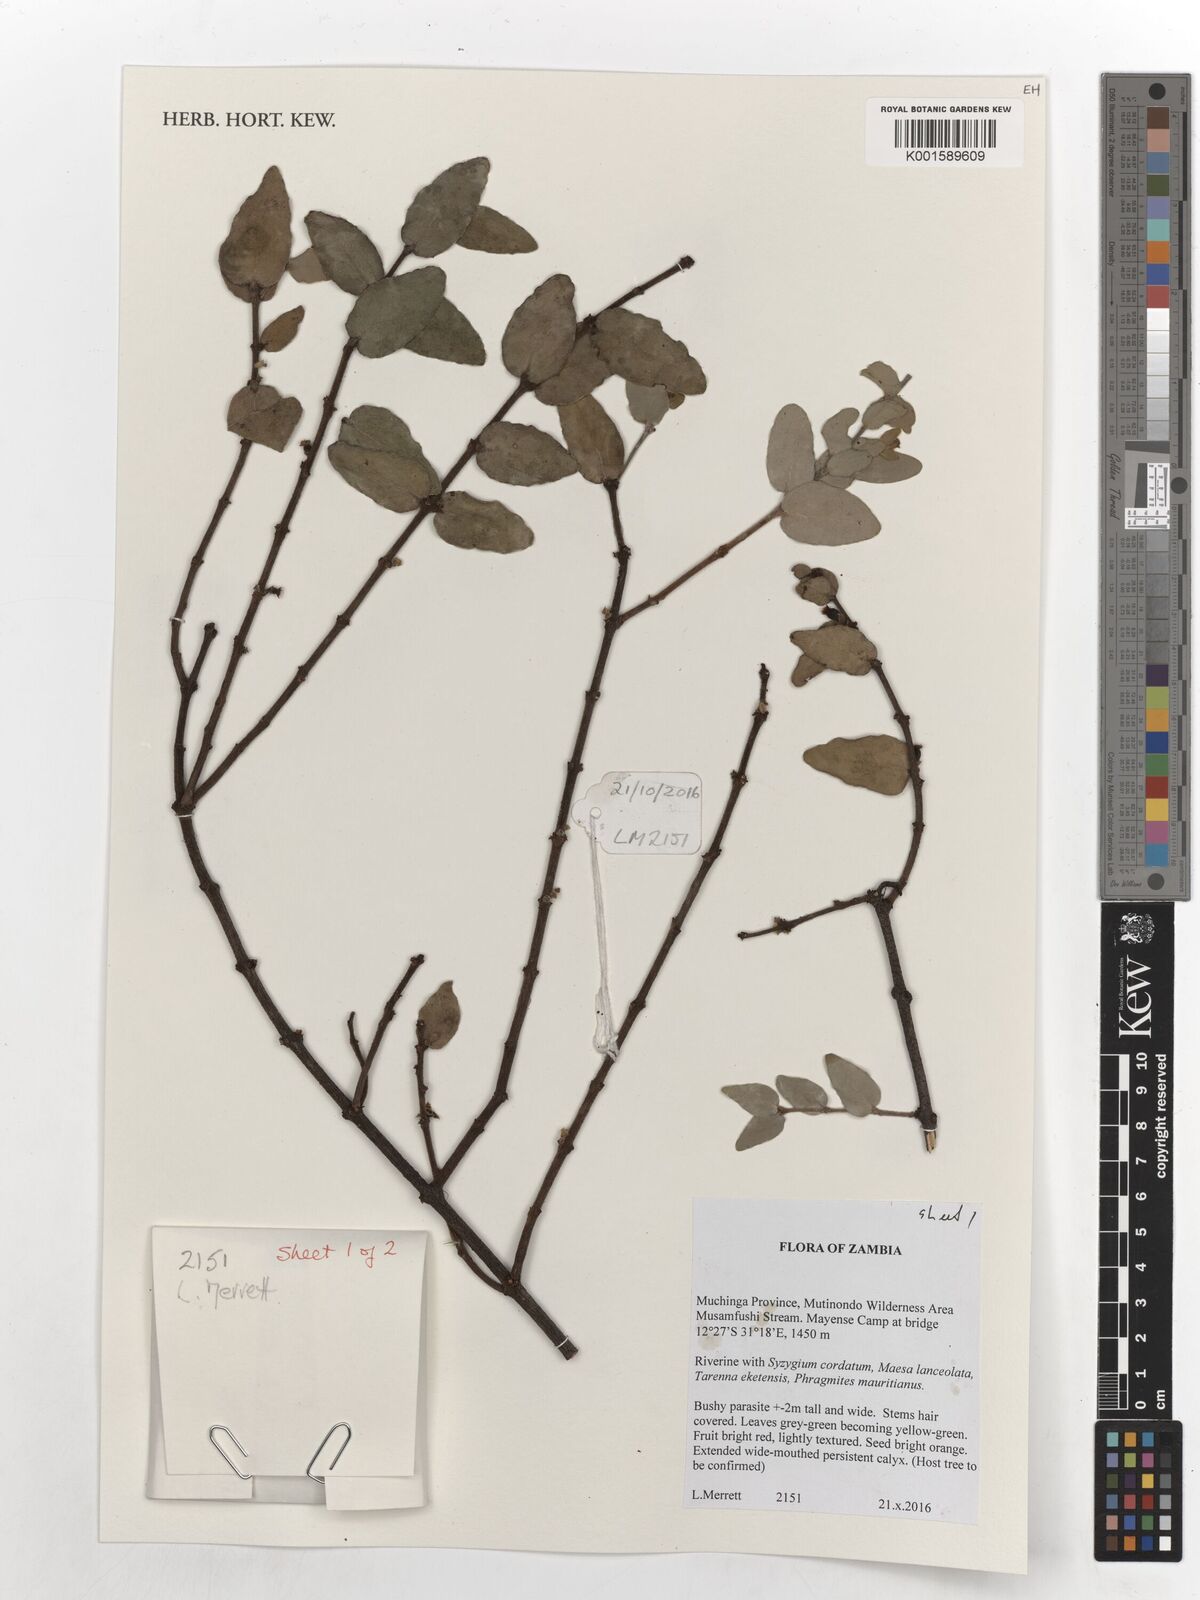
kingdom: Plantae
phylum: Tracheophyta
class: Magnoliopsida
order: Santalales
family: Loranthaceae
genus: Tapinanthus
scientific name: Tapinanthus erianthus
